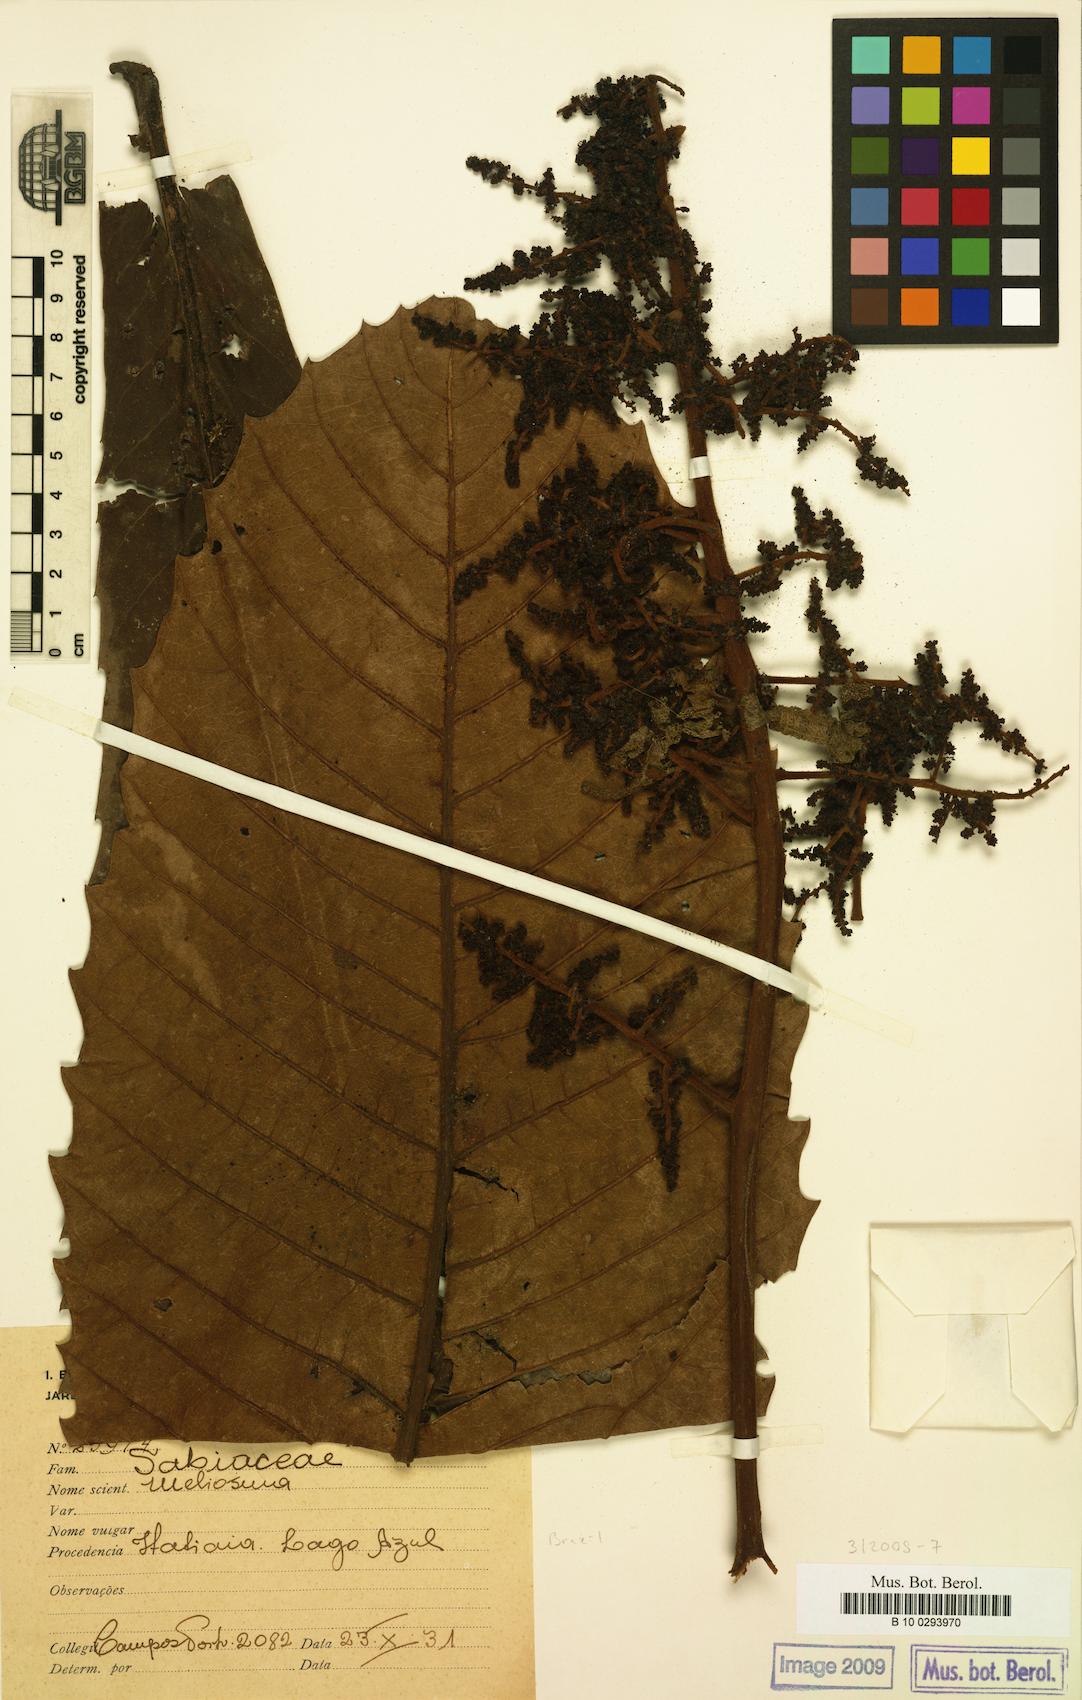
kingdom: Plantae
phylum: Tracheophyta
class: Magnoliopsida
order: Proteales
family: Sabiaceae
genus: Meliosma
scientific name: Meliosma
